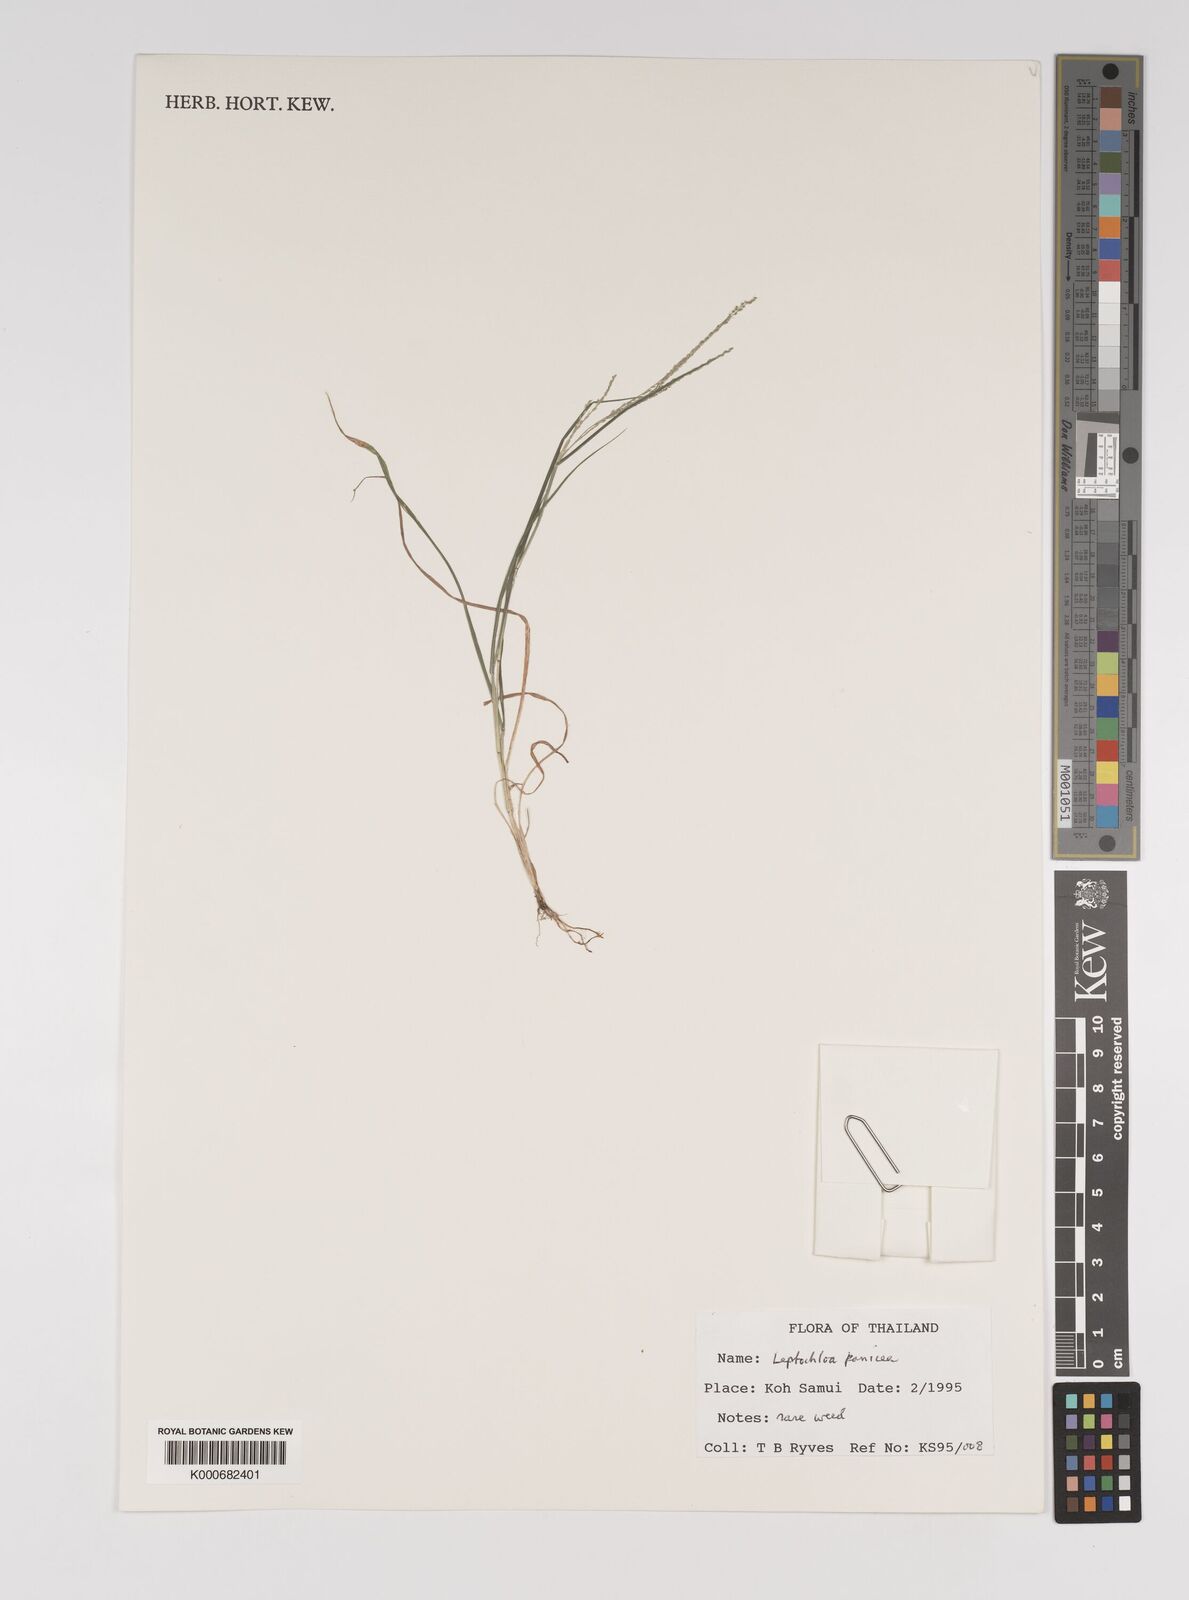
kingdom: Plantae
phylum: Tracheophyta
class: Liliopsida
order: Poales
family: Poaceae
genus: Leptochloa
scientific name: Leptochloa panicea
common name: Mucronate sprangletop
